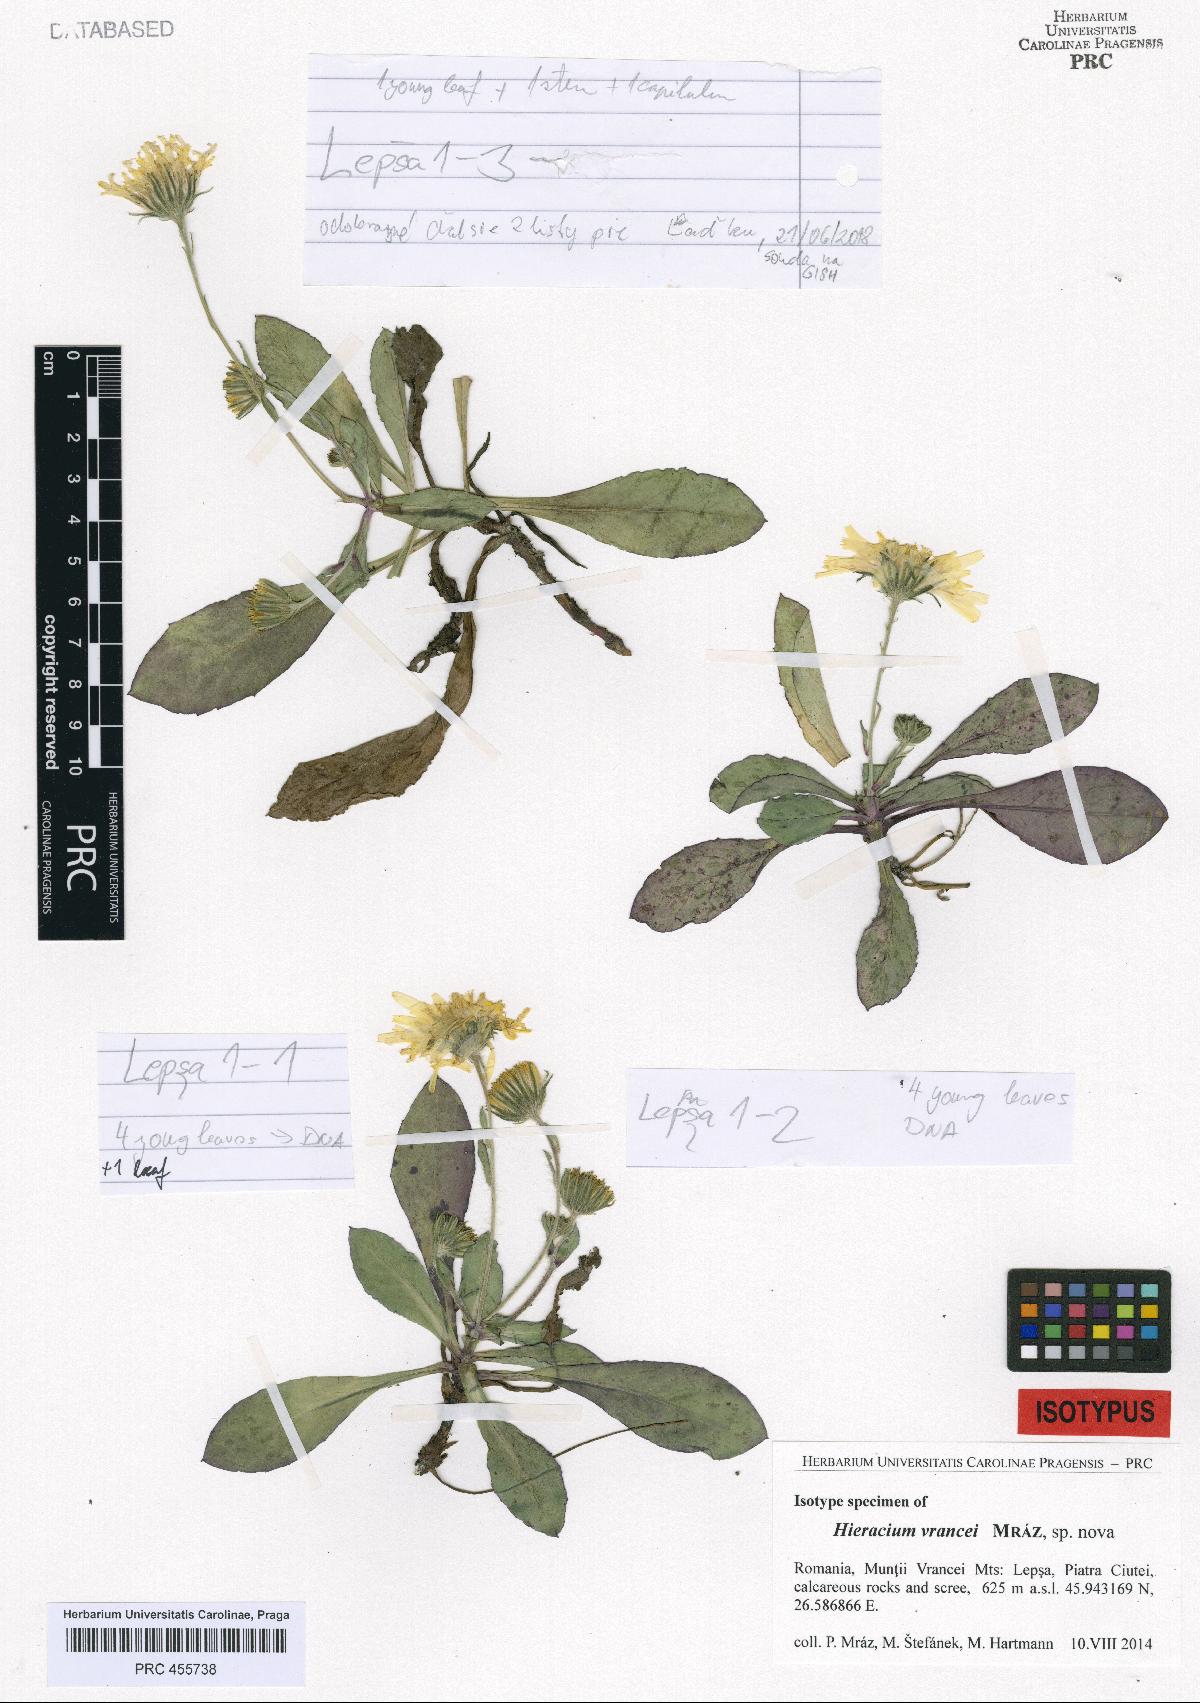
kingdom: Plantae
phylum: Tracheophyta
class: Magnoliopsida
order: Asterales
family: Asteraceae
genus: Hieracium
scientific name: Hieracium
